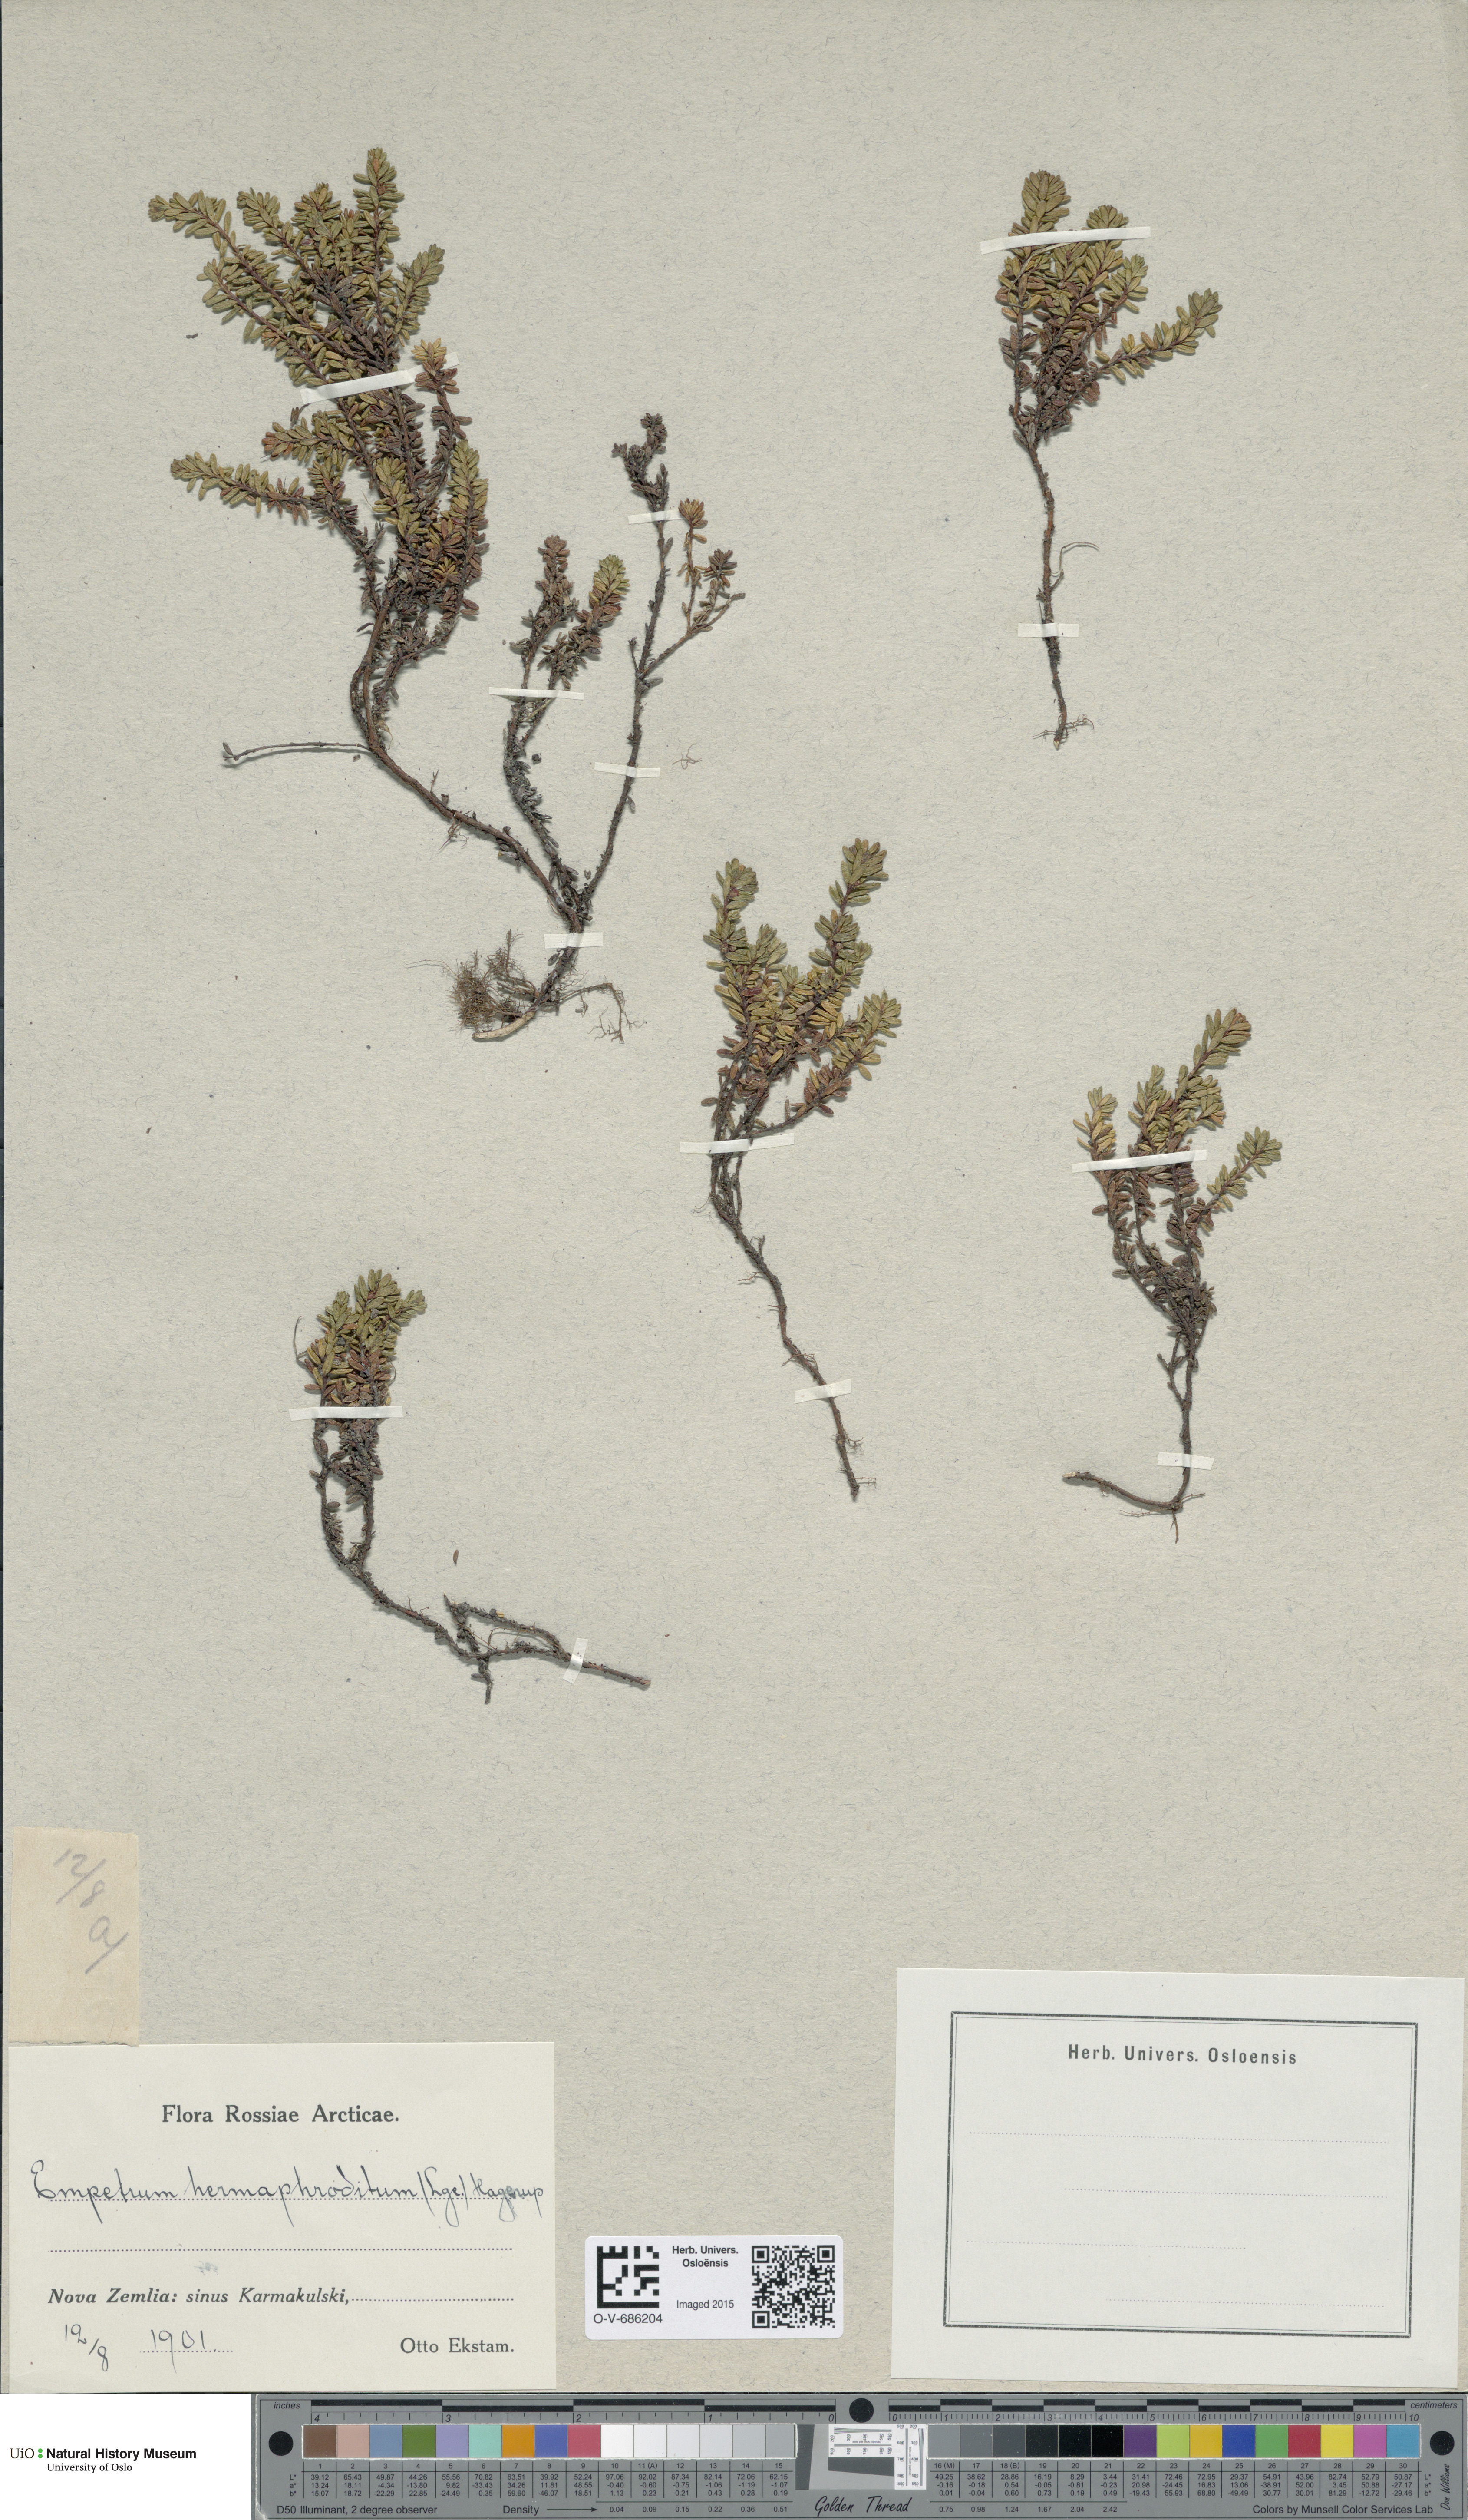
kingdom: Plantae
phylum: Tracheophyta
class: Magnoliopsida
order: Ericales
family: Ericaceae
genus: Empetrum
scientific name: Empetrum hermaphroditum
